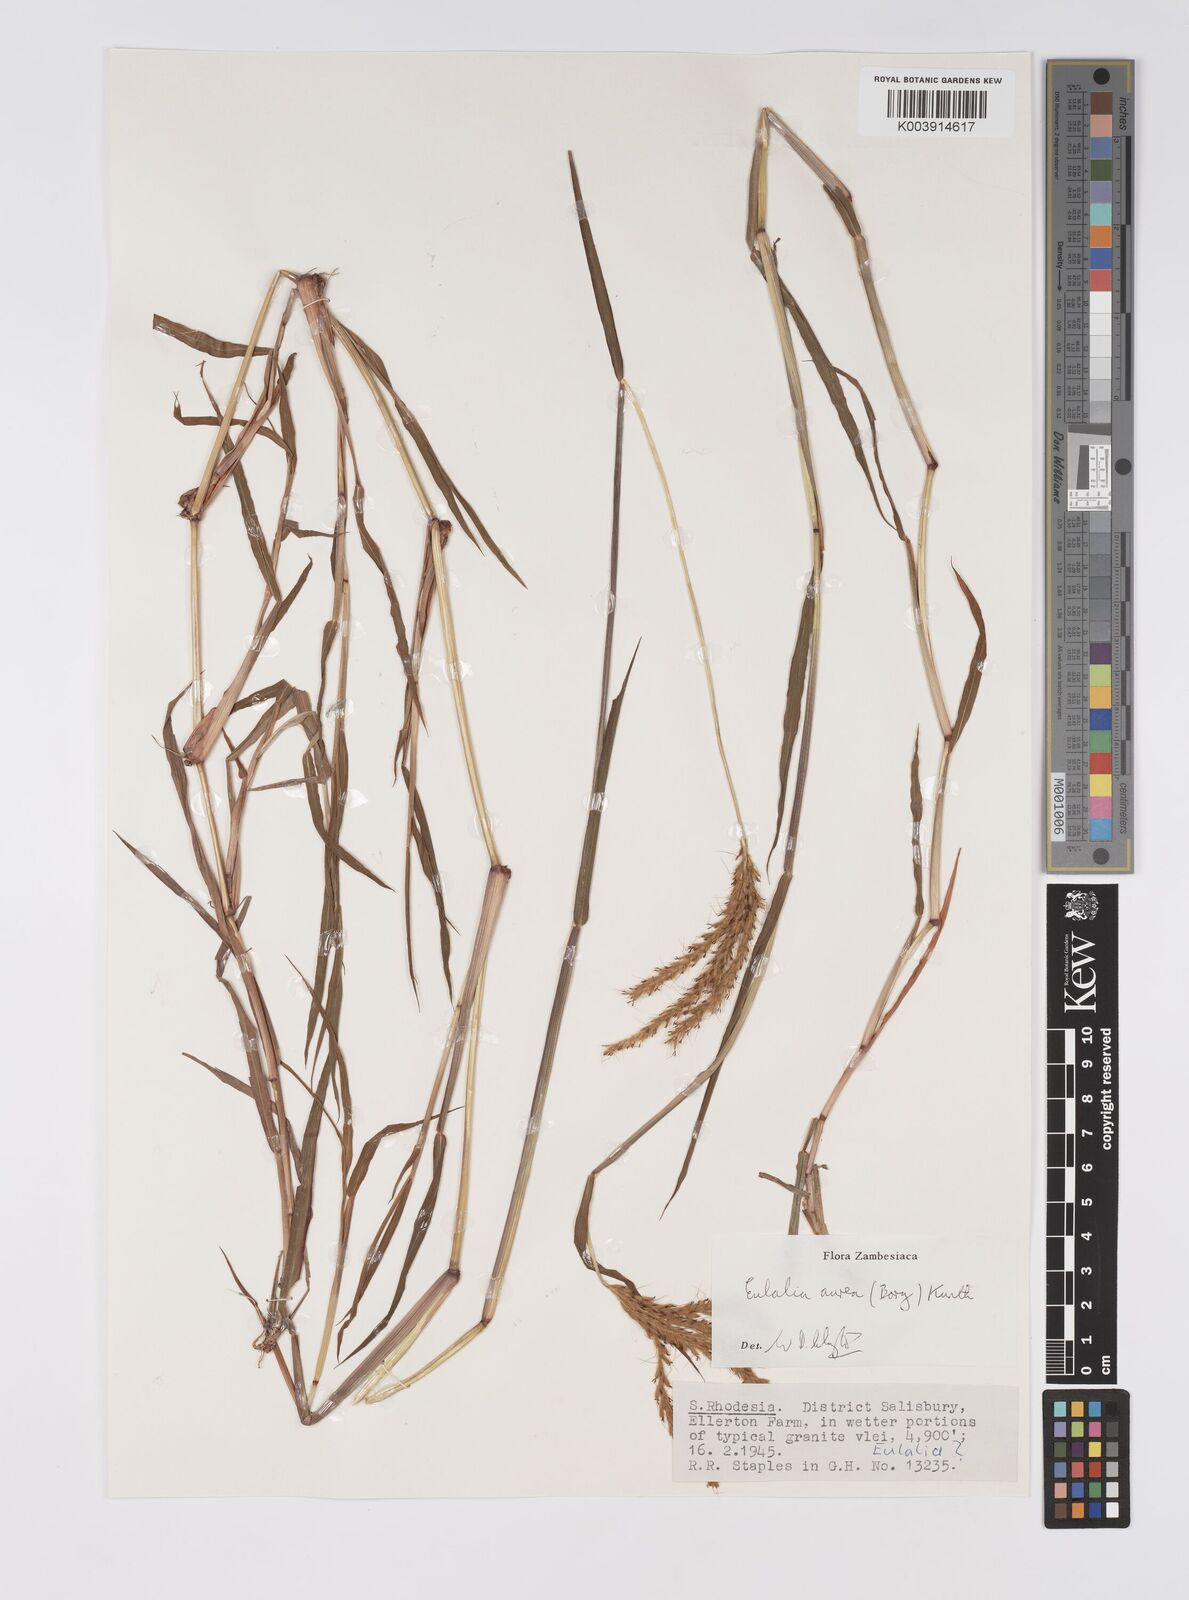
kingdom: Plantae
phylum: Tracheophyta
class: Liliopsida
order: Poales
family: Poaceae
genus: Eulalia
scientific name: Eulalia aurea
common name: Silky browntop
